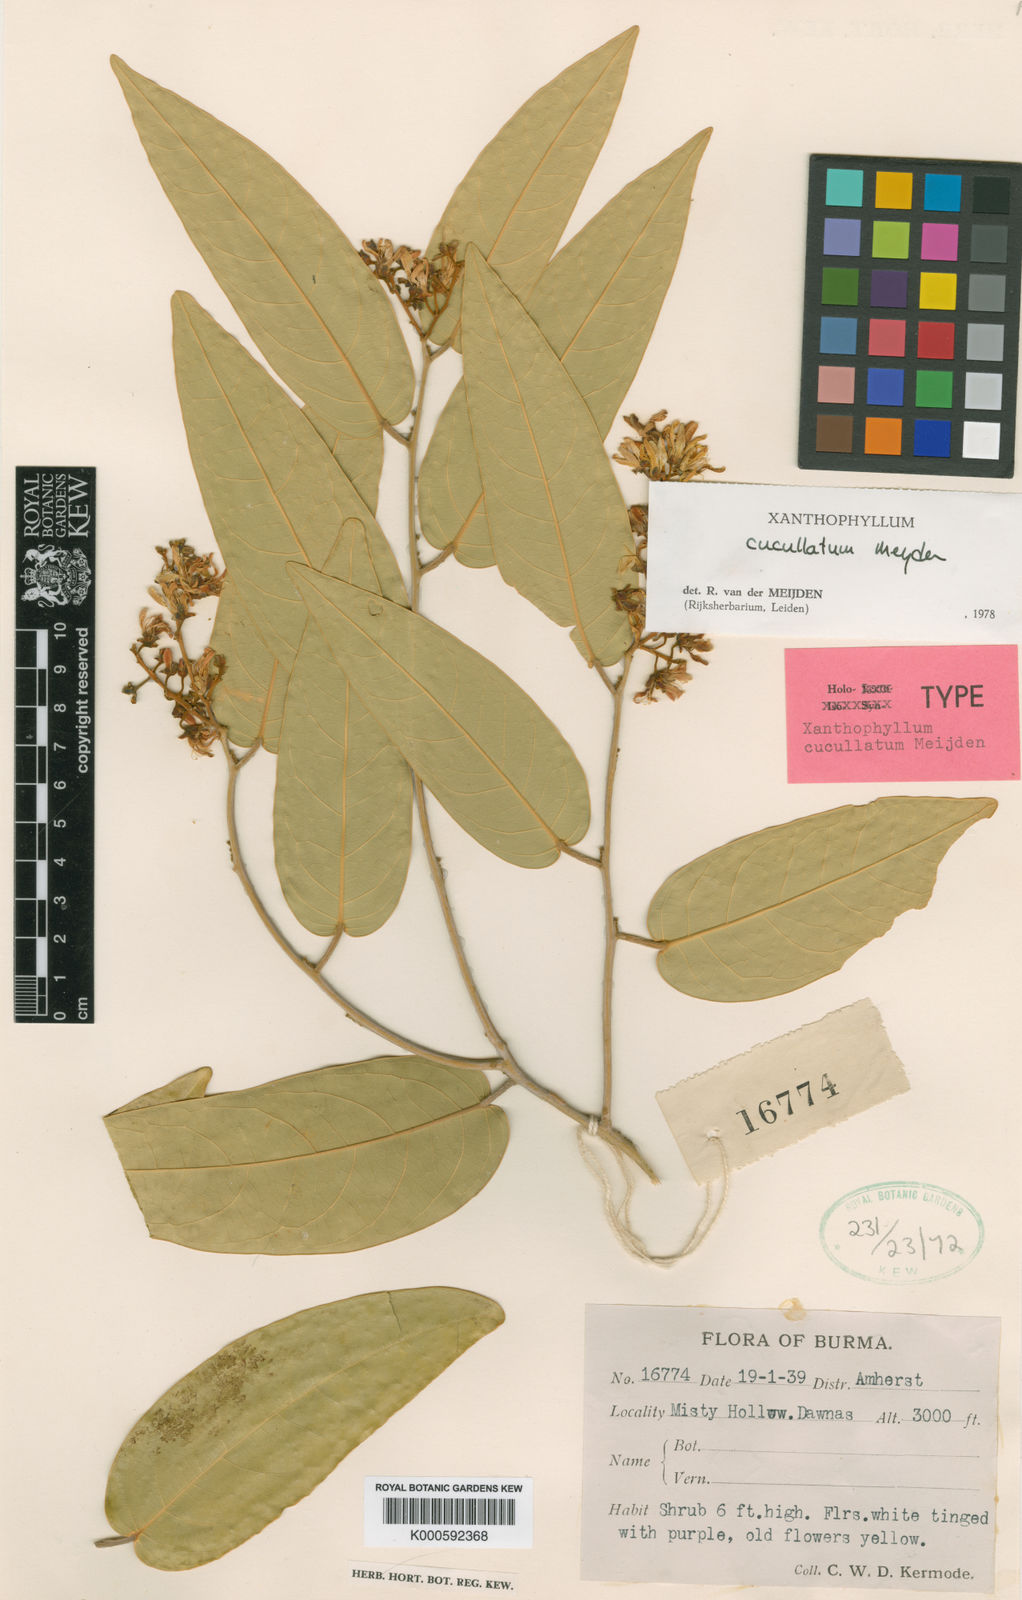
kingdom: Plantae
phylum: Tracheophyta
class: Magnoliopsida
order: Fabales
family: Polygalaceae
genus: Xanthophyllum
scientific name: Xanthophyllum cucullatum
